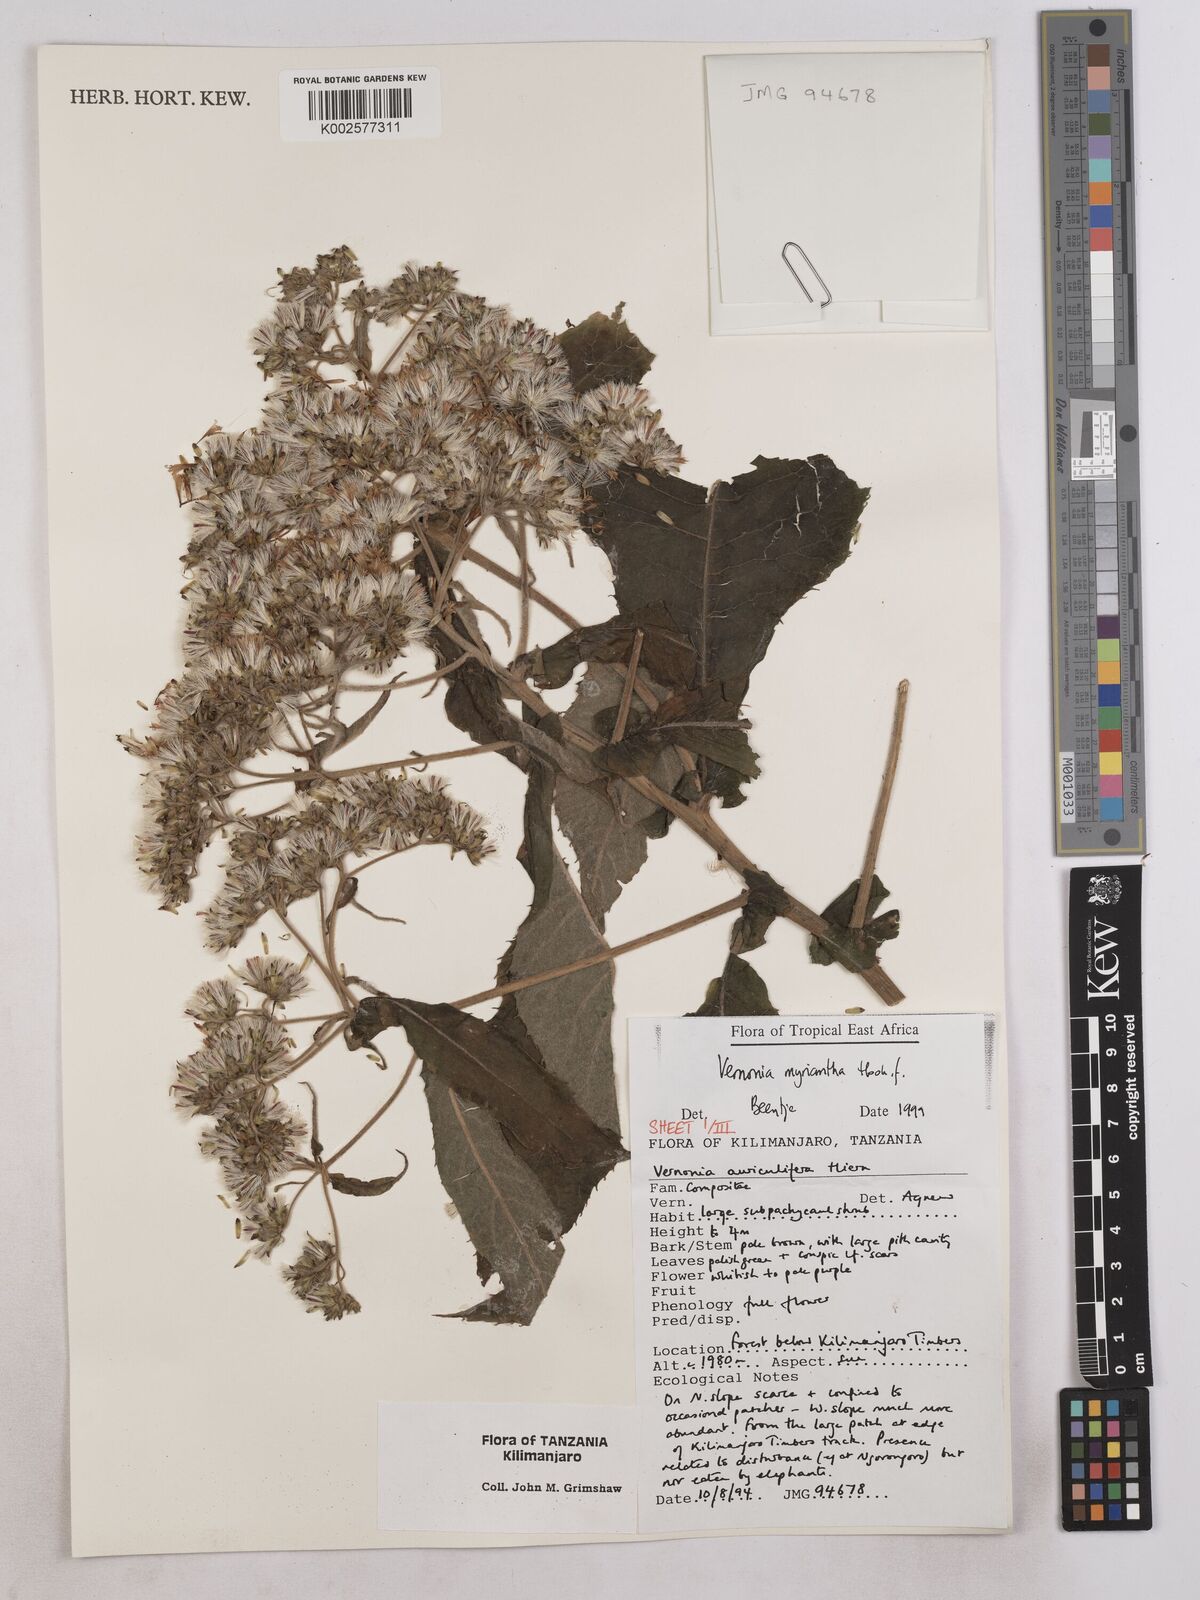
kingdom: Plantae
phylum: Tracheophyta
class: Magnoliopsida
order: Asterales
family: Asteraceae
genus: Gymnanthemum
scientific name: Gymnanthemum myrianthum
